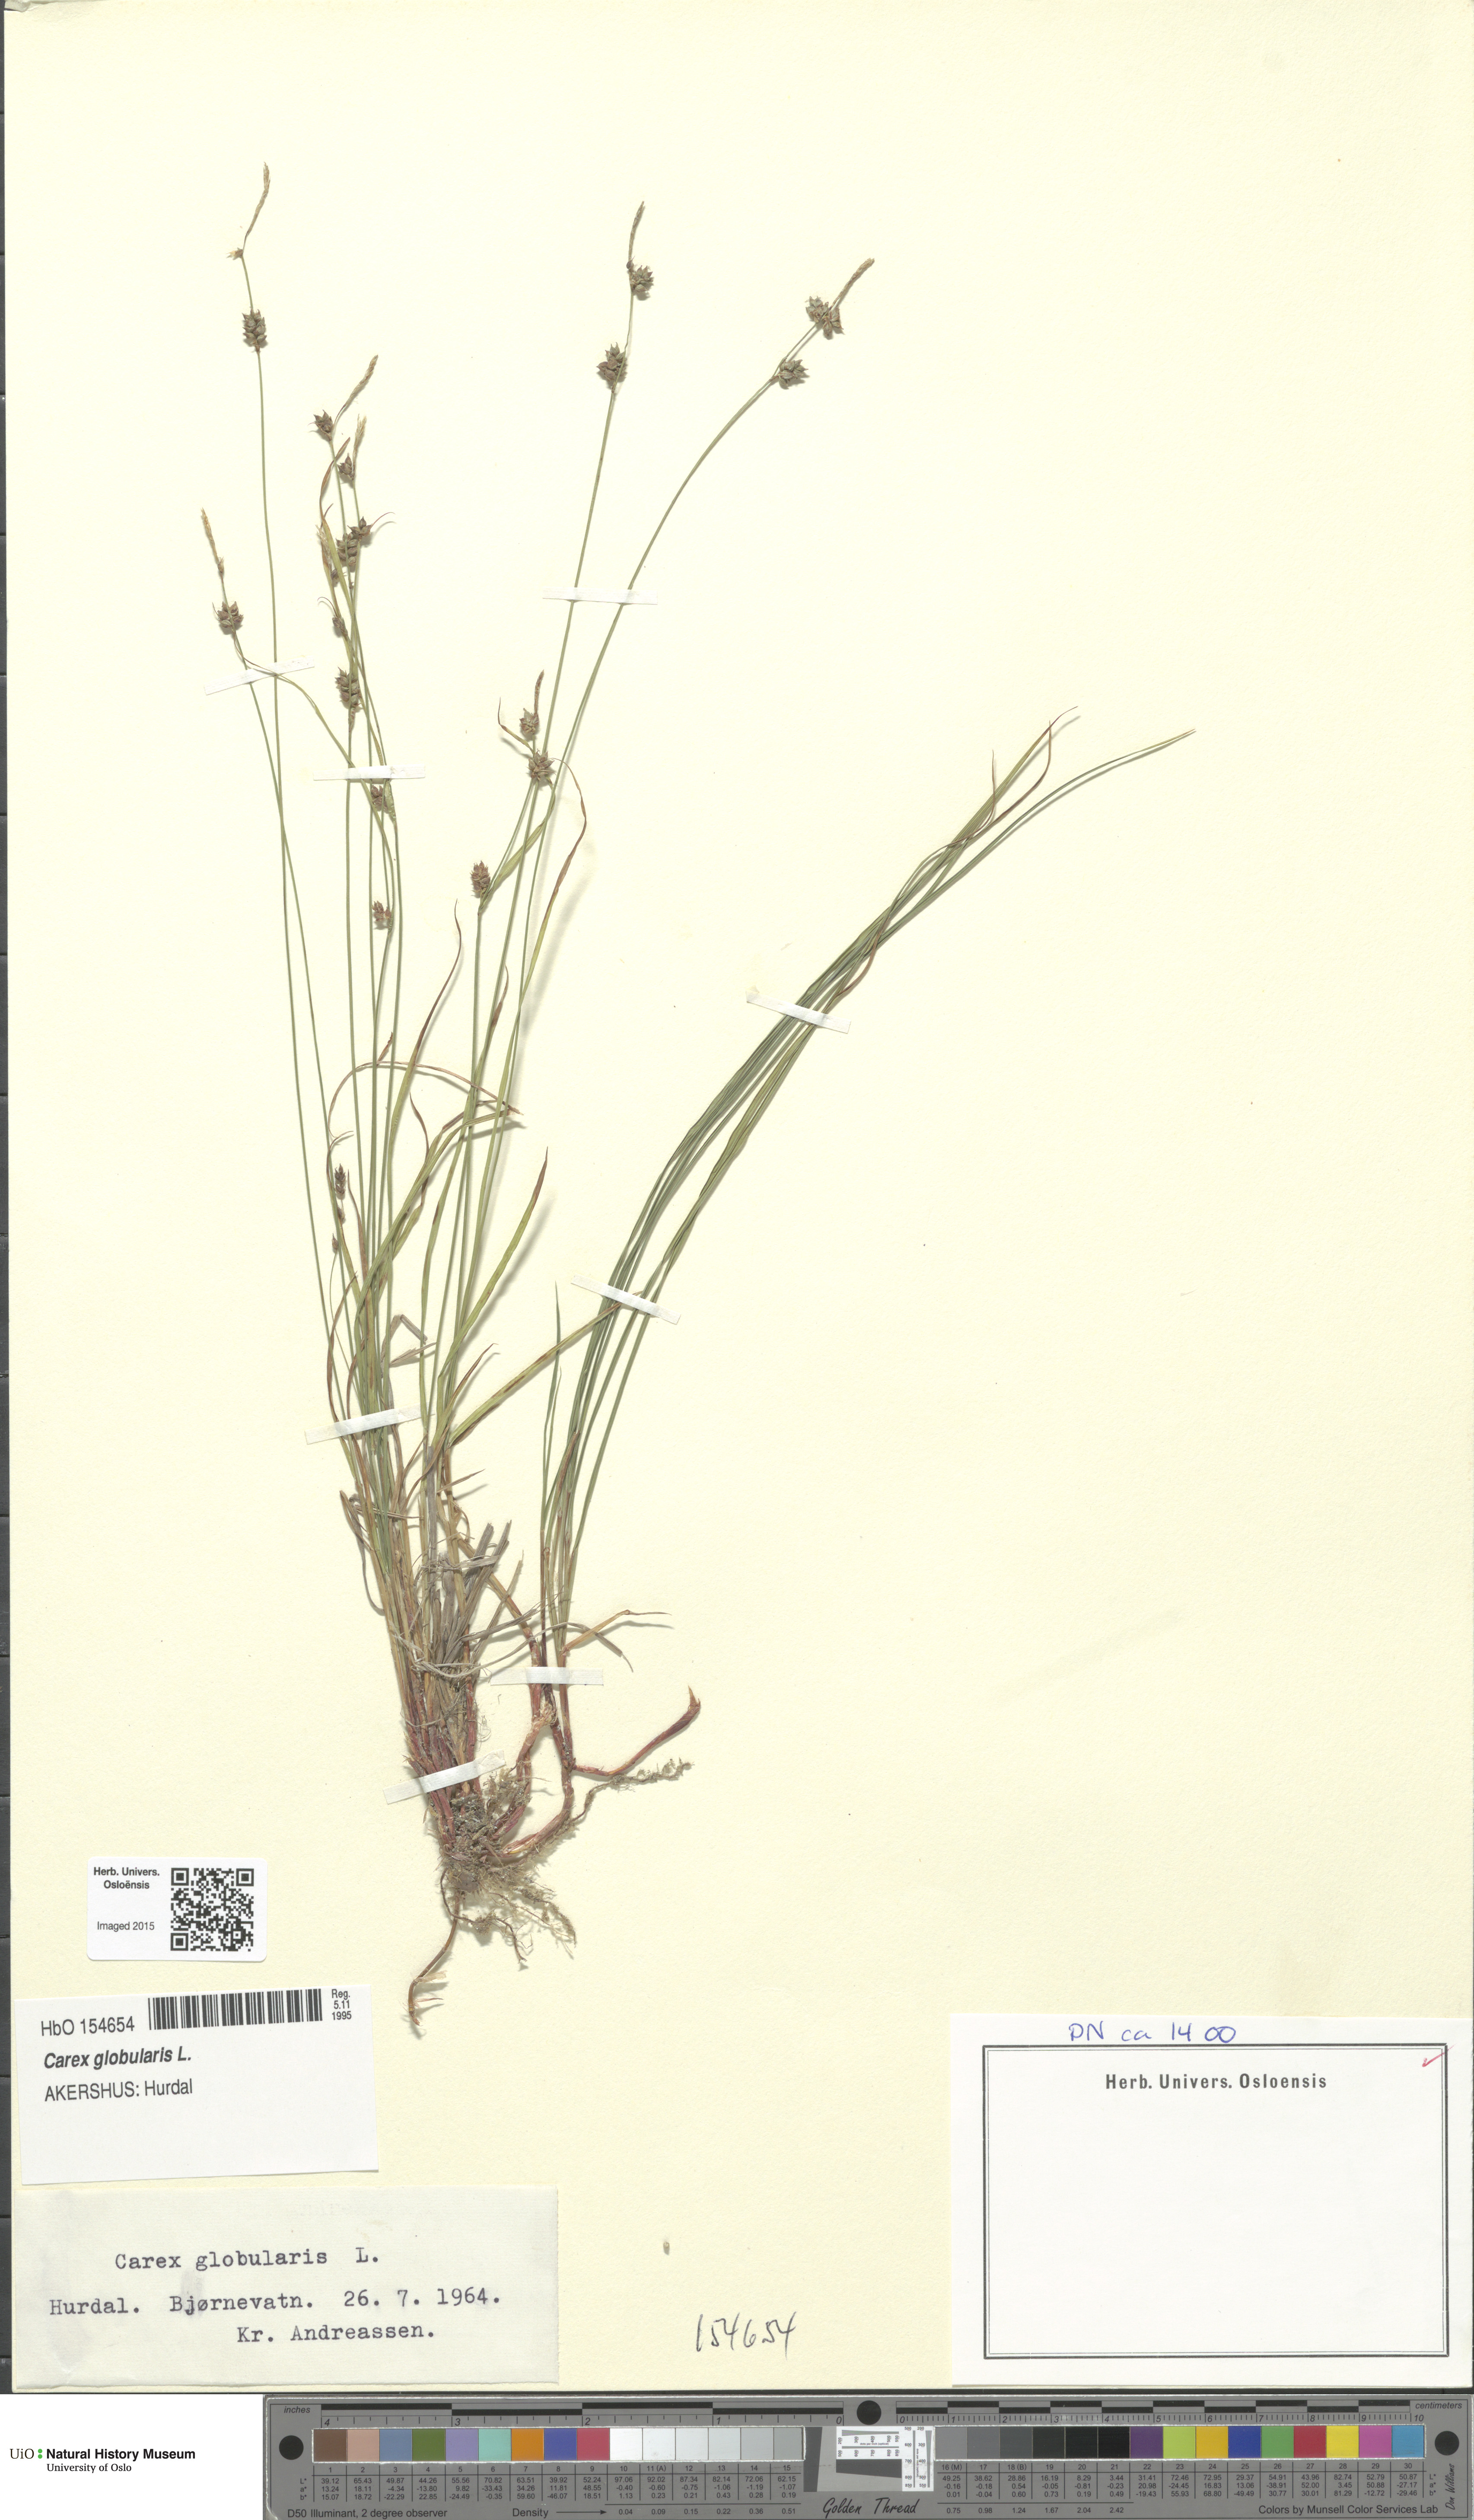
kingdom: Plantae
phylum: Tracheophyta
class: Liliopsida
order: Poales
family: Cyperaceae
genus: Carex
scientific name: Carex globularis
